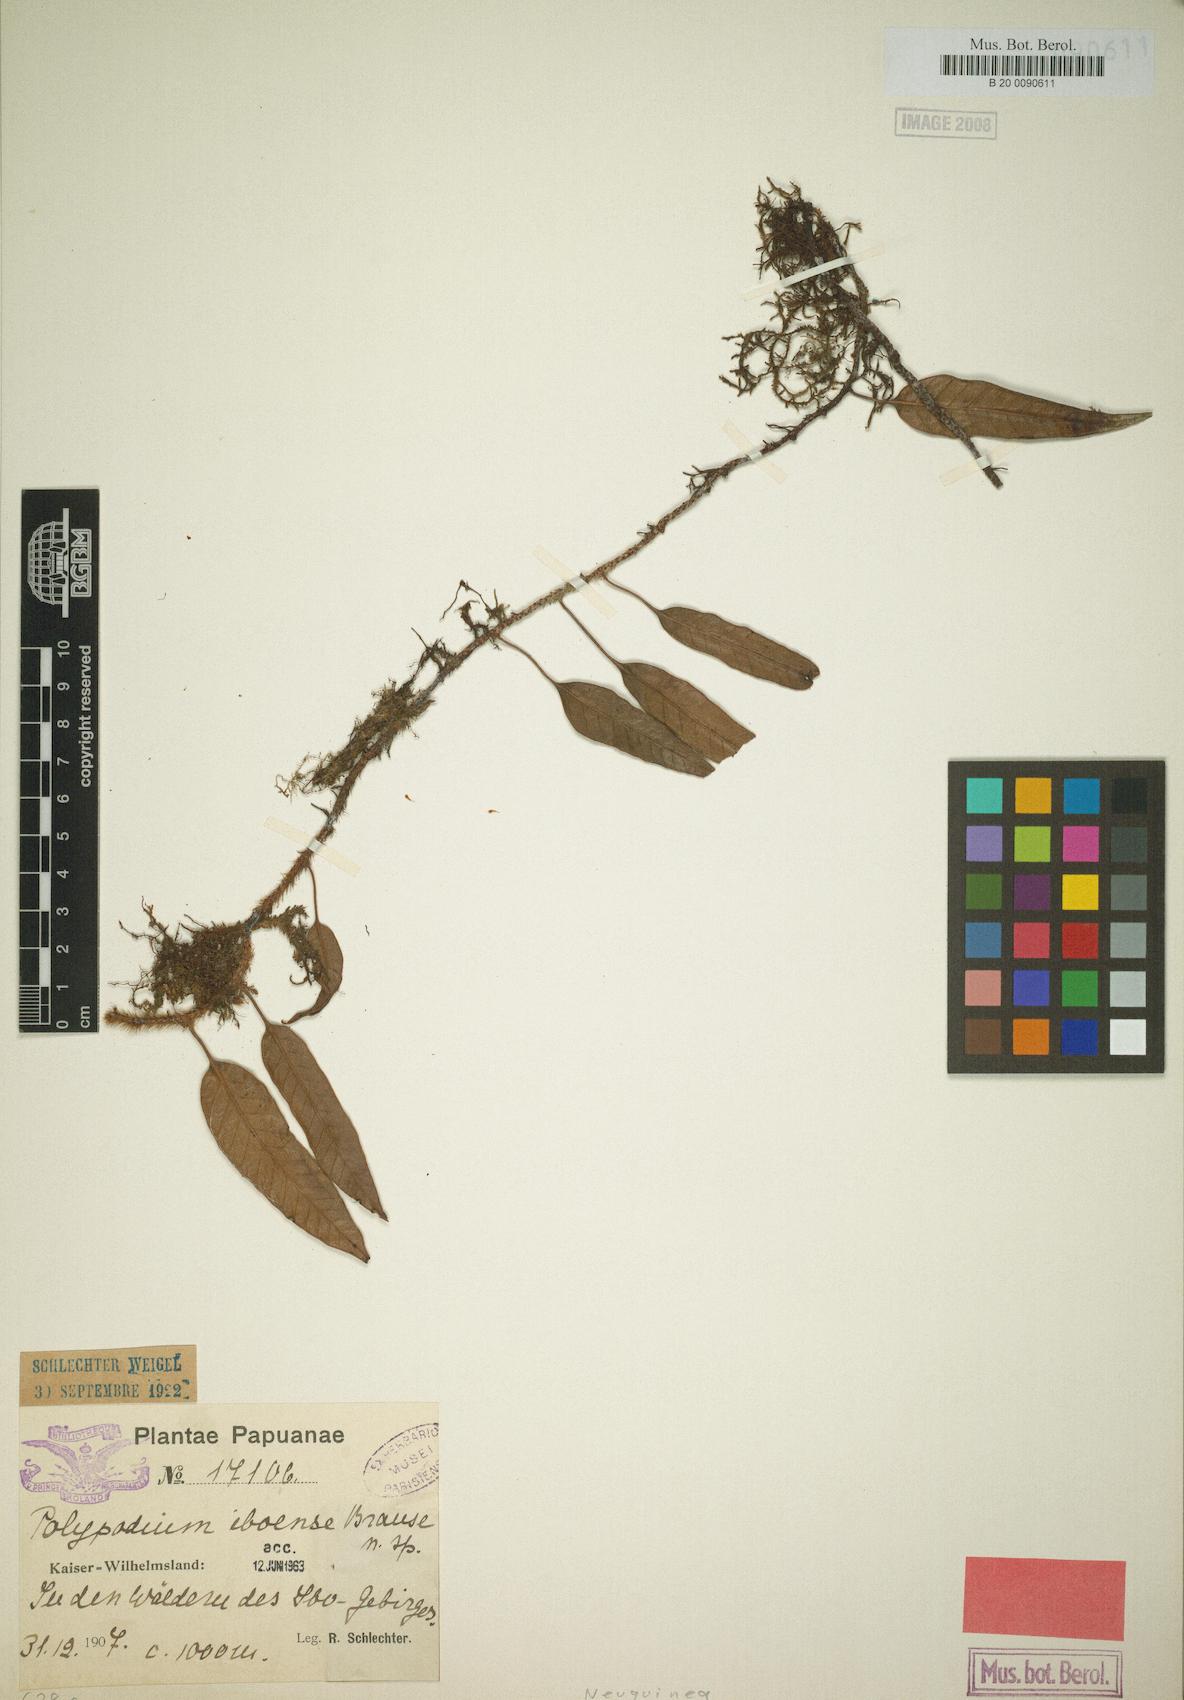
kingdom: Plantae
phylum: Tracheophyta
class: Polypodiopsida
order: Polypodiales
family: Polypodiaceae
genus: Selliguea
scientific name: Selliguea costulata
